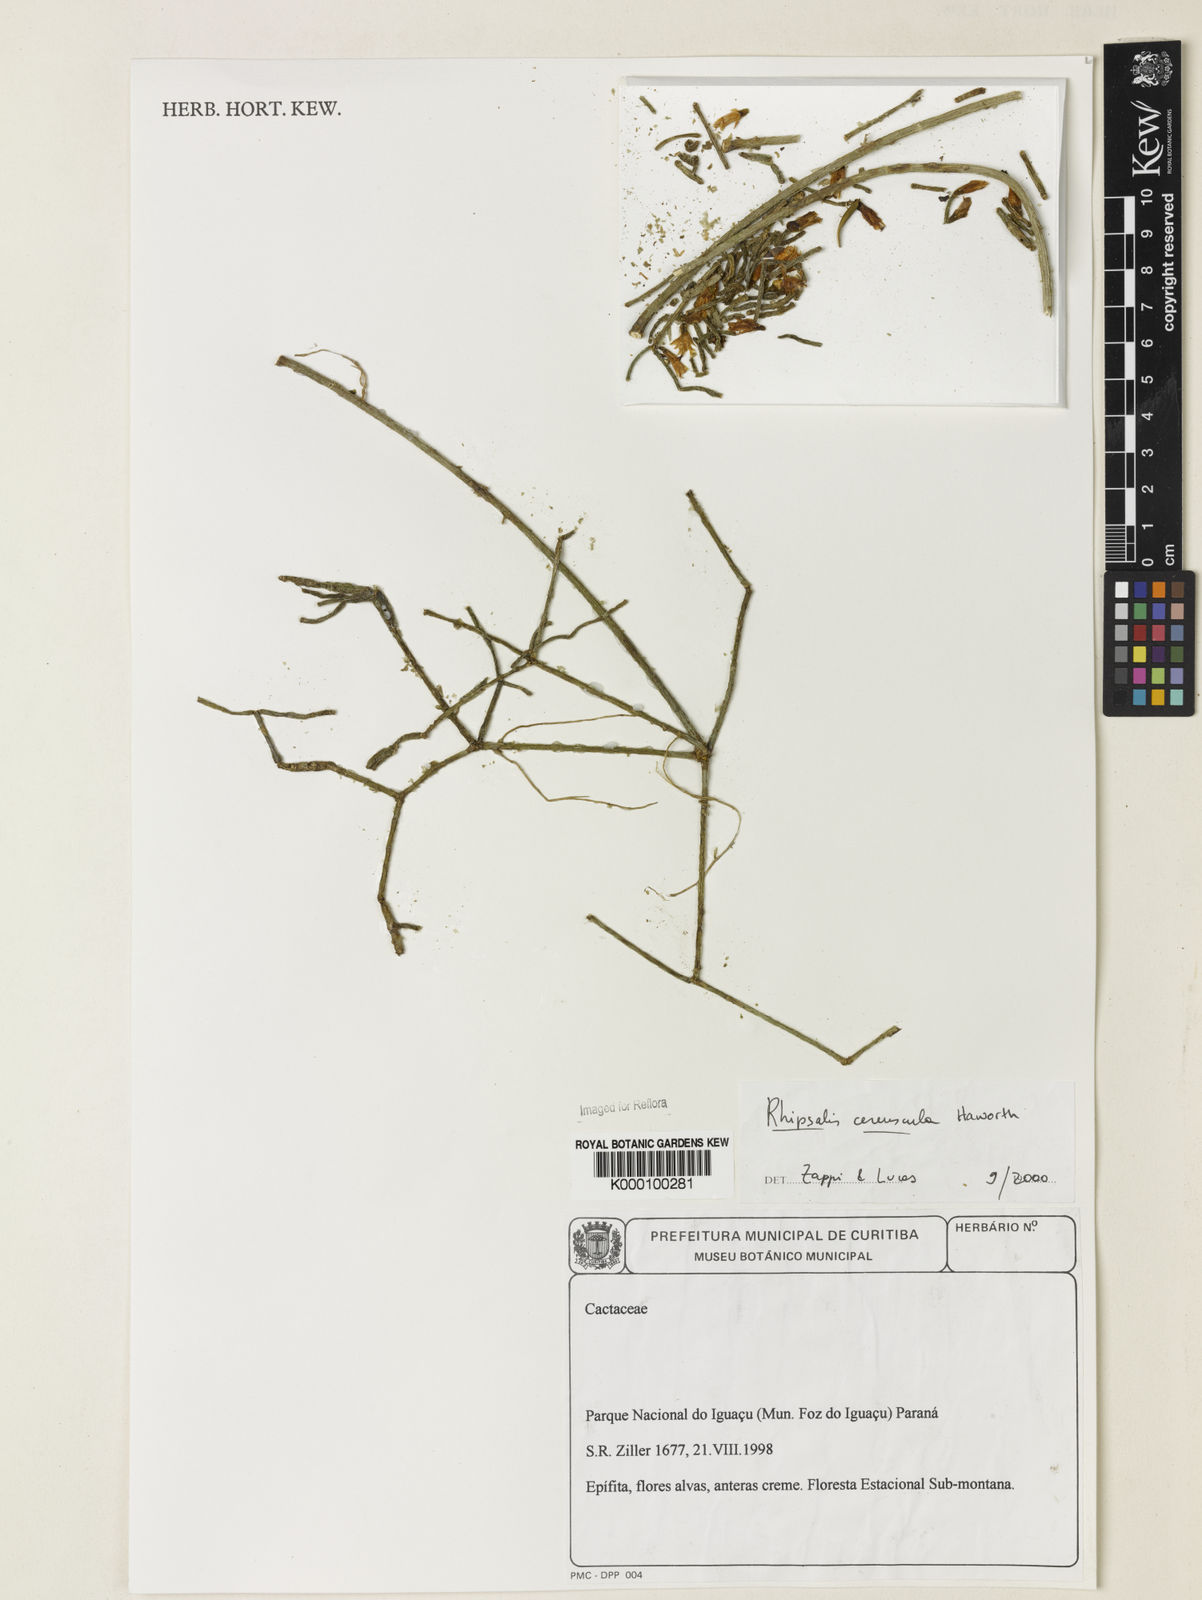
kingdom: Plantae
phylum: Tracheophyta
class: Magnoliopsida
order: Caryophyllales
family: Cactaceae
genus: Rhipsalis
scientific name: Rhipsalis cereuscula
